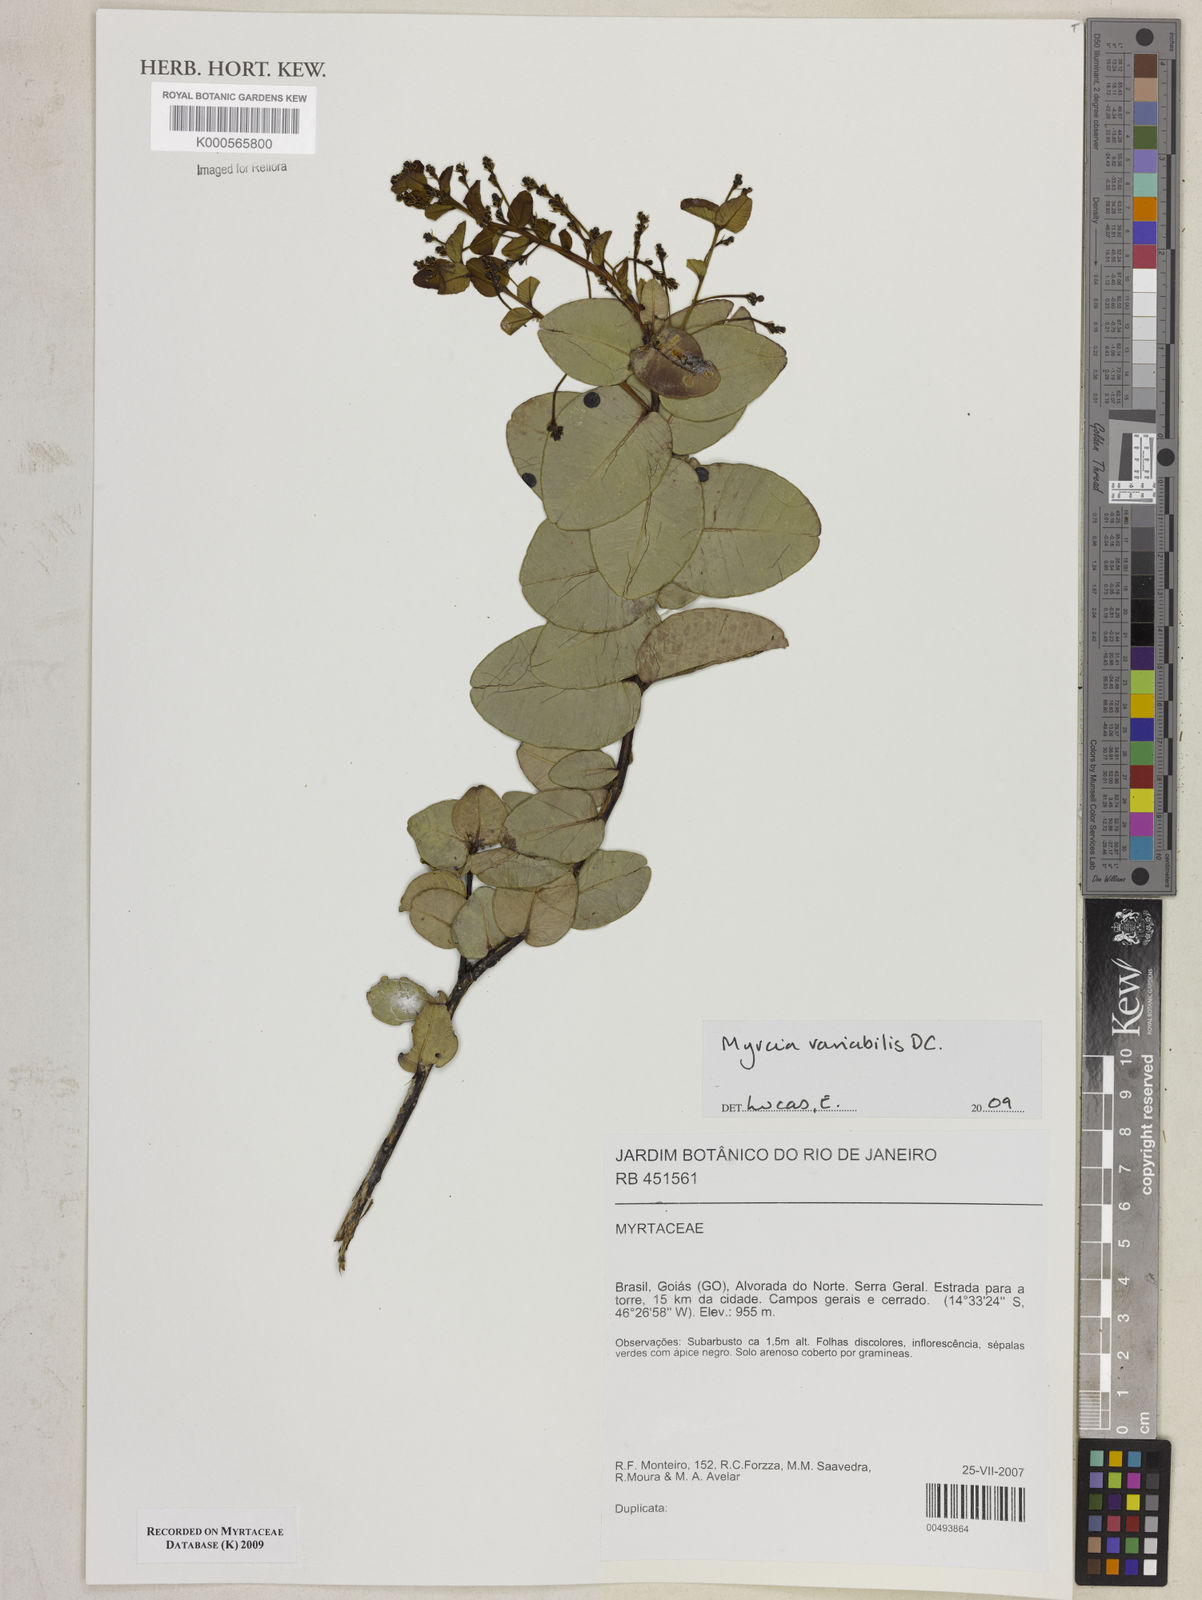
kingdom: Plantae
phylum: Tracheophyta
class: Magnoliopsida
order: Myrtales
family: Myrtaceae
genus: Myrcia
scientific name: Myrcia variabilis
